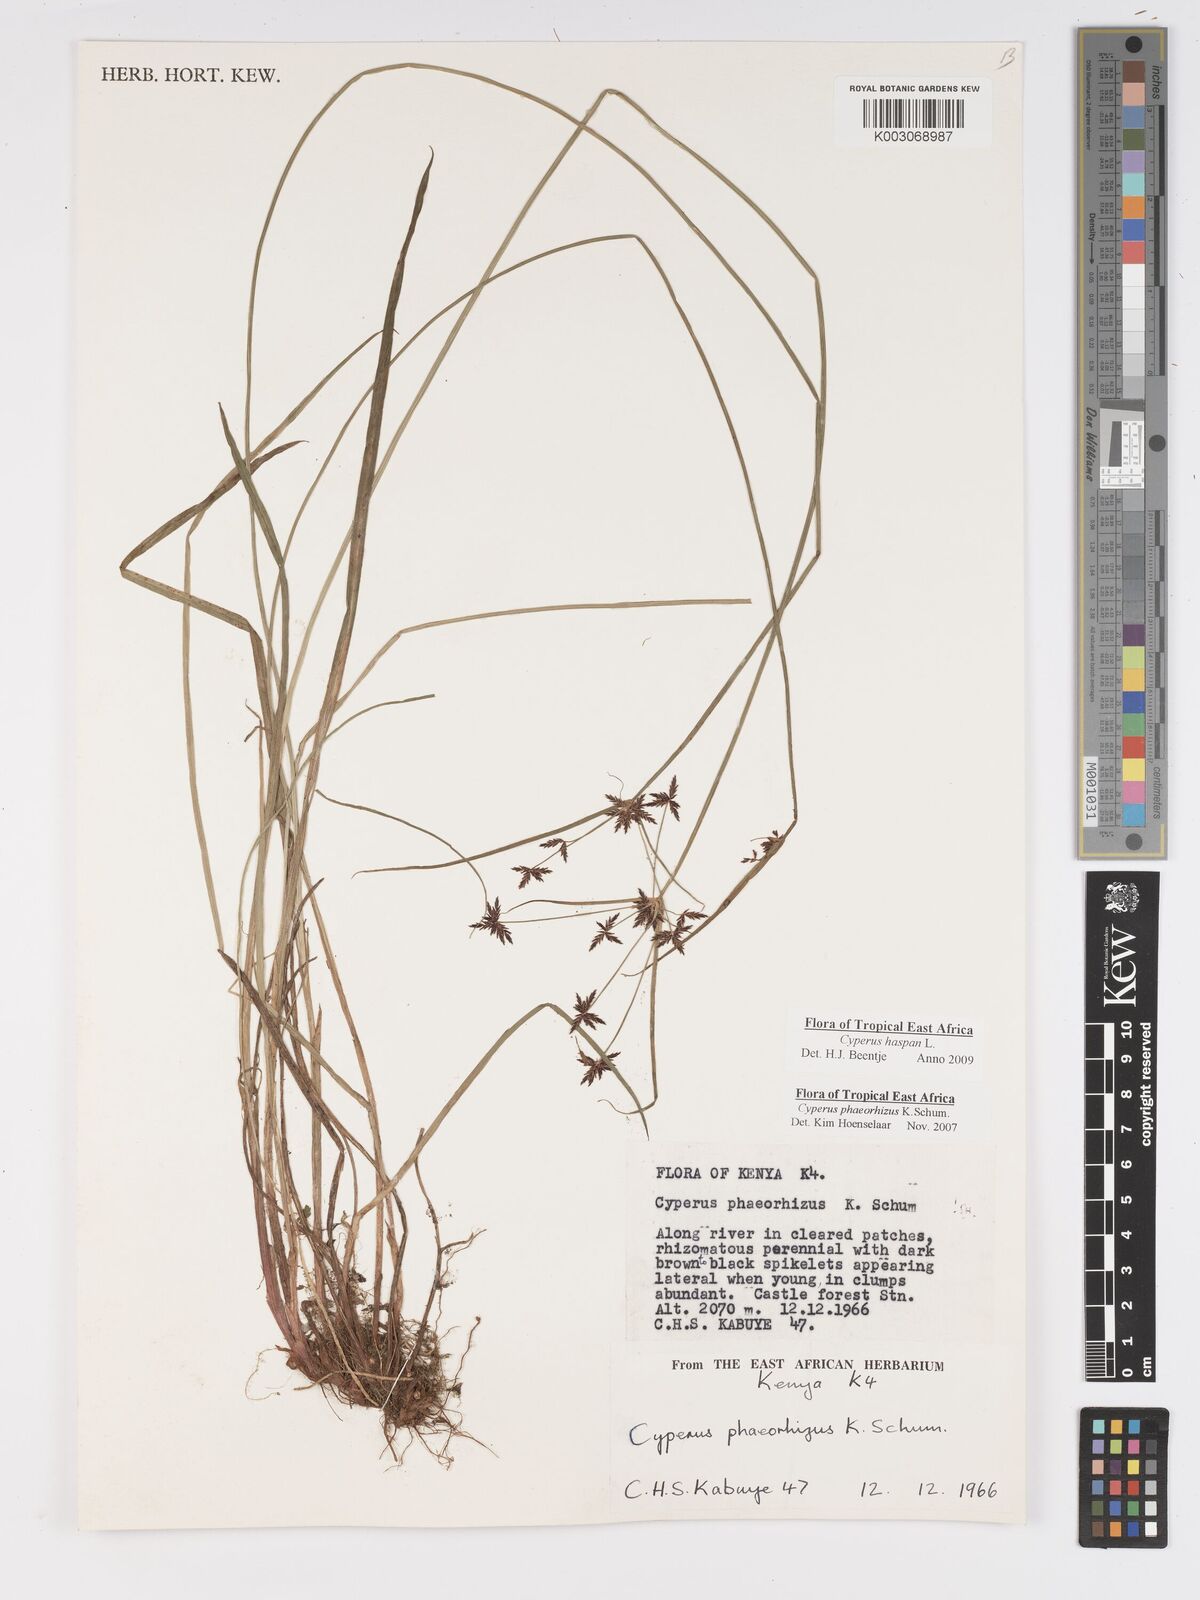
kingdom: Plantae
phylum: Tracheophyta
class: Liliopsida
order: Poales
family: Cyperaceae
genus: Cyperus
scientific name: Cyperus haspan
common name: Haspan flatsedge
